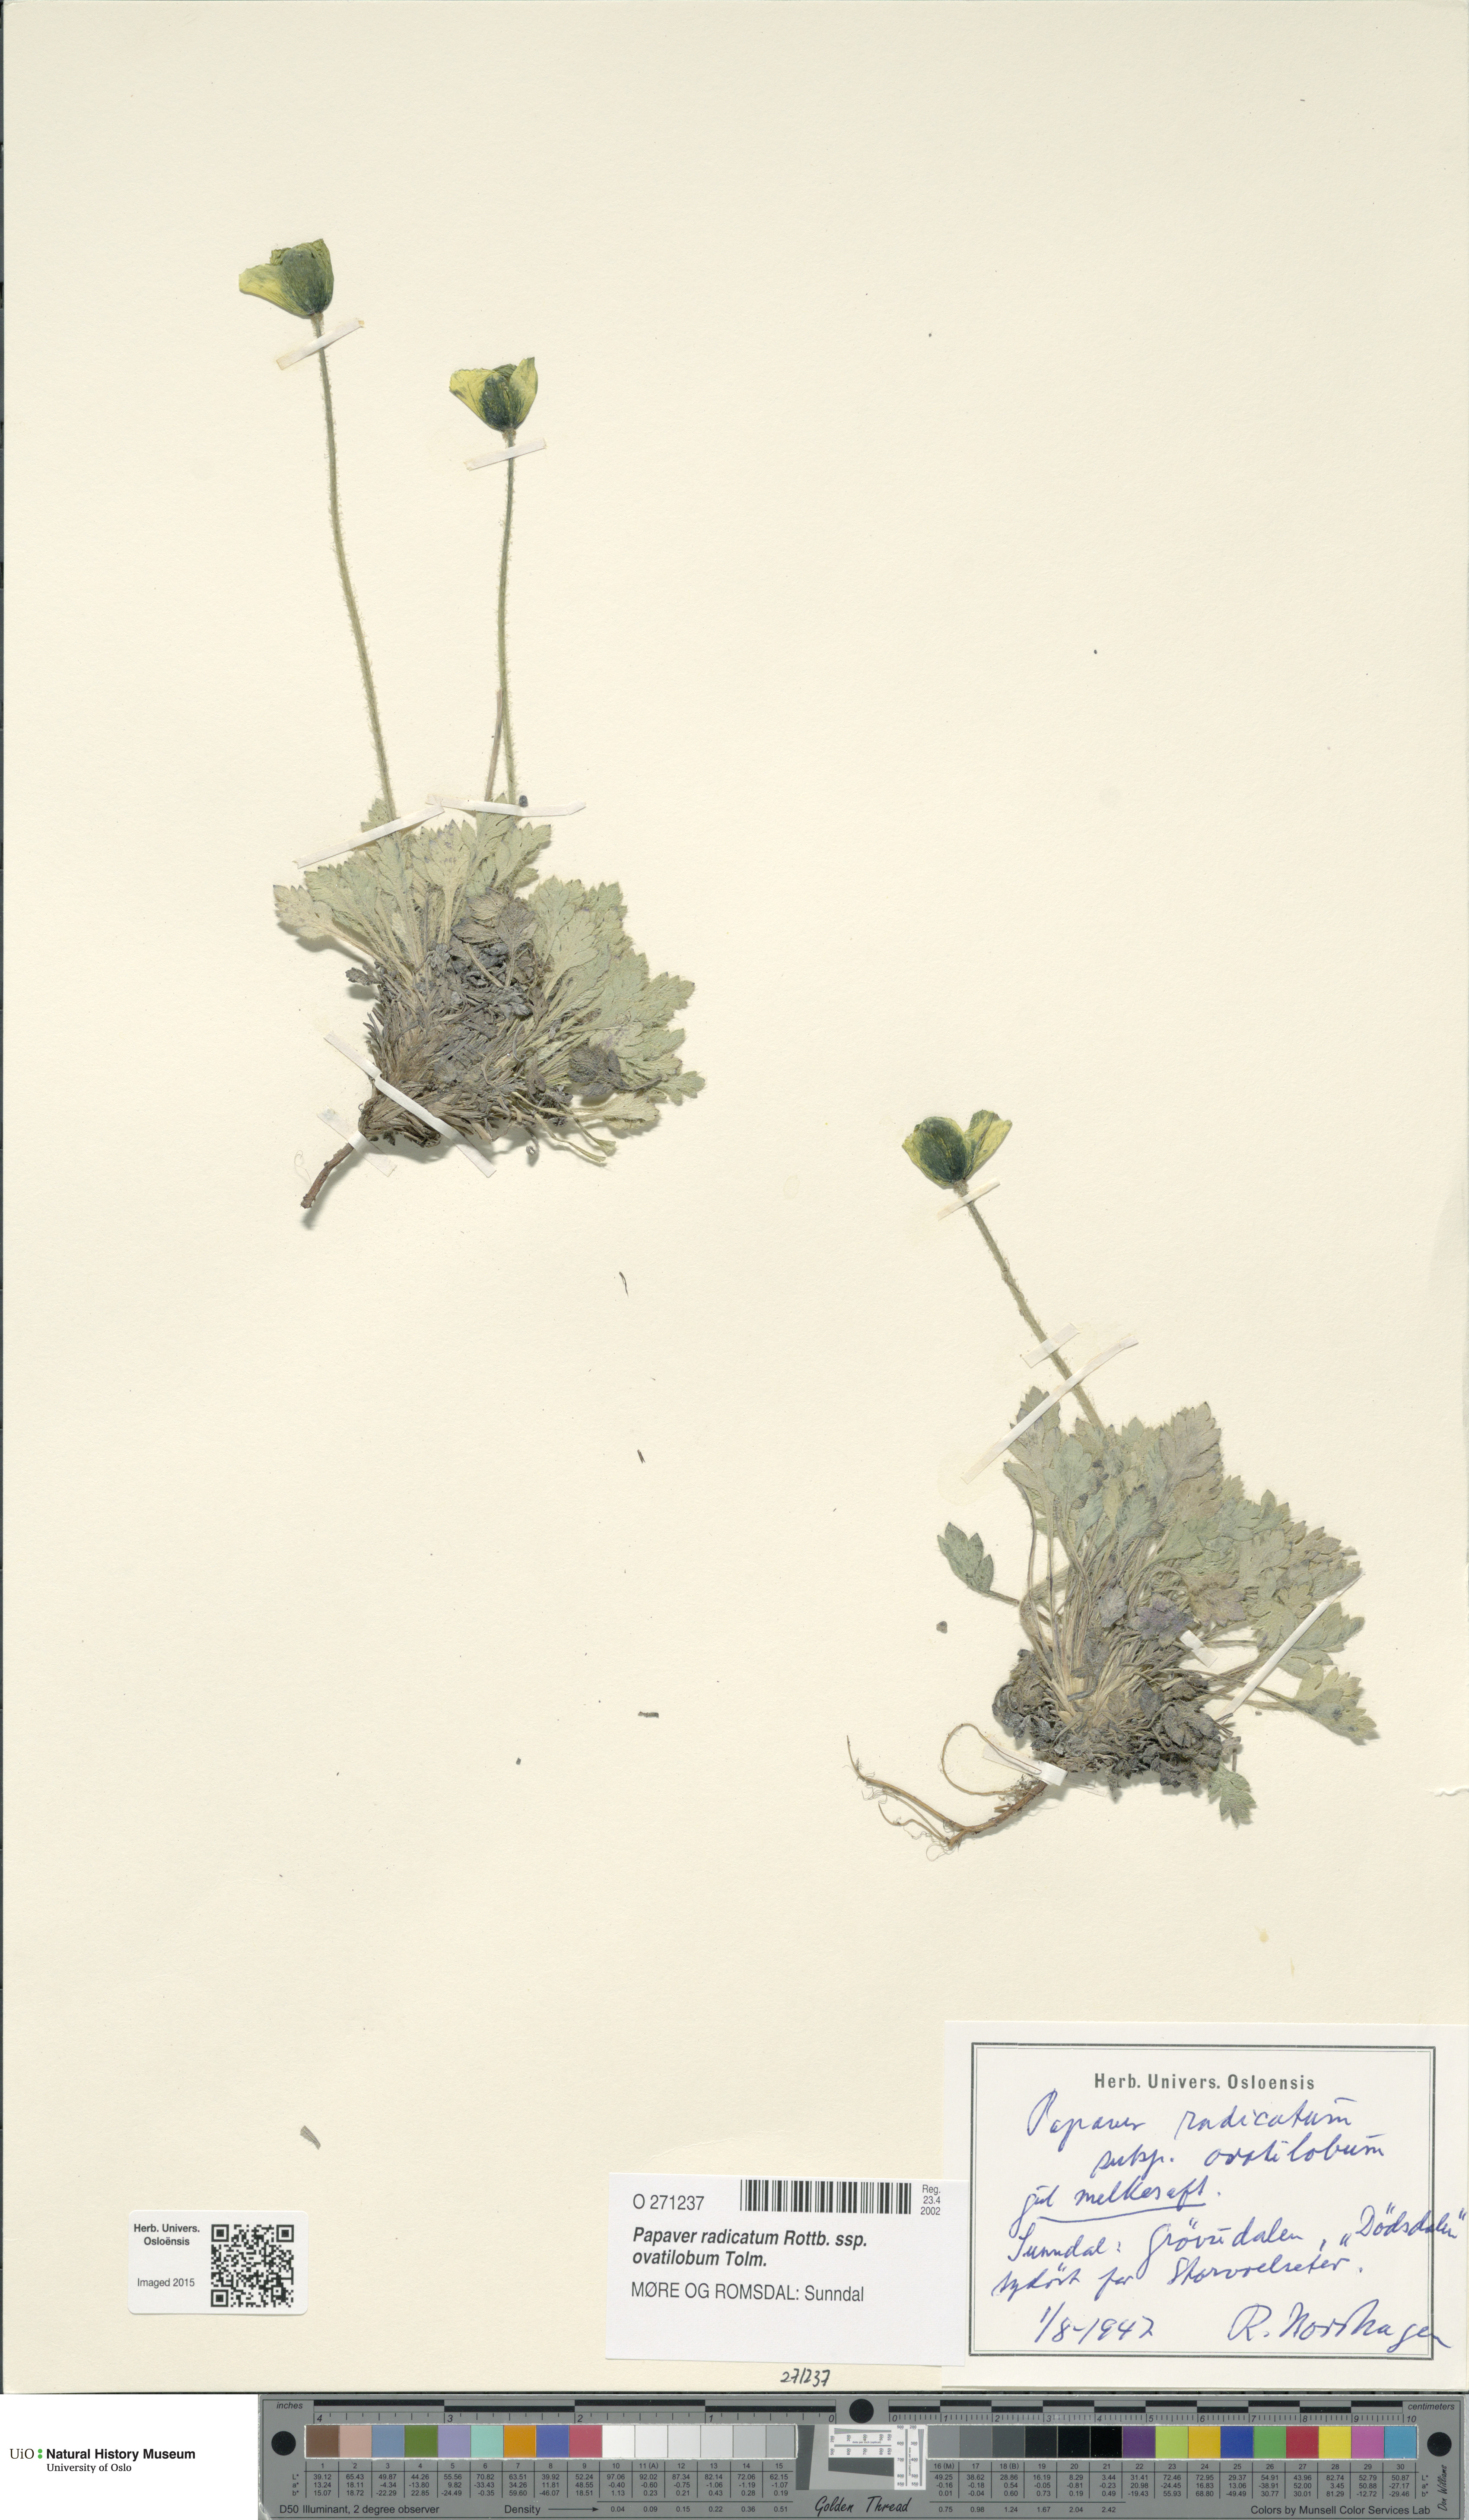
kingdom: Plantae
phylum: Tracheophyta
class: Magnoliopsida
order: Ranunculales
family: Papaveraceae
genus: Papaver
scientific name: Papaver radicatum
